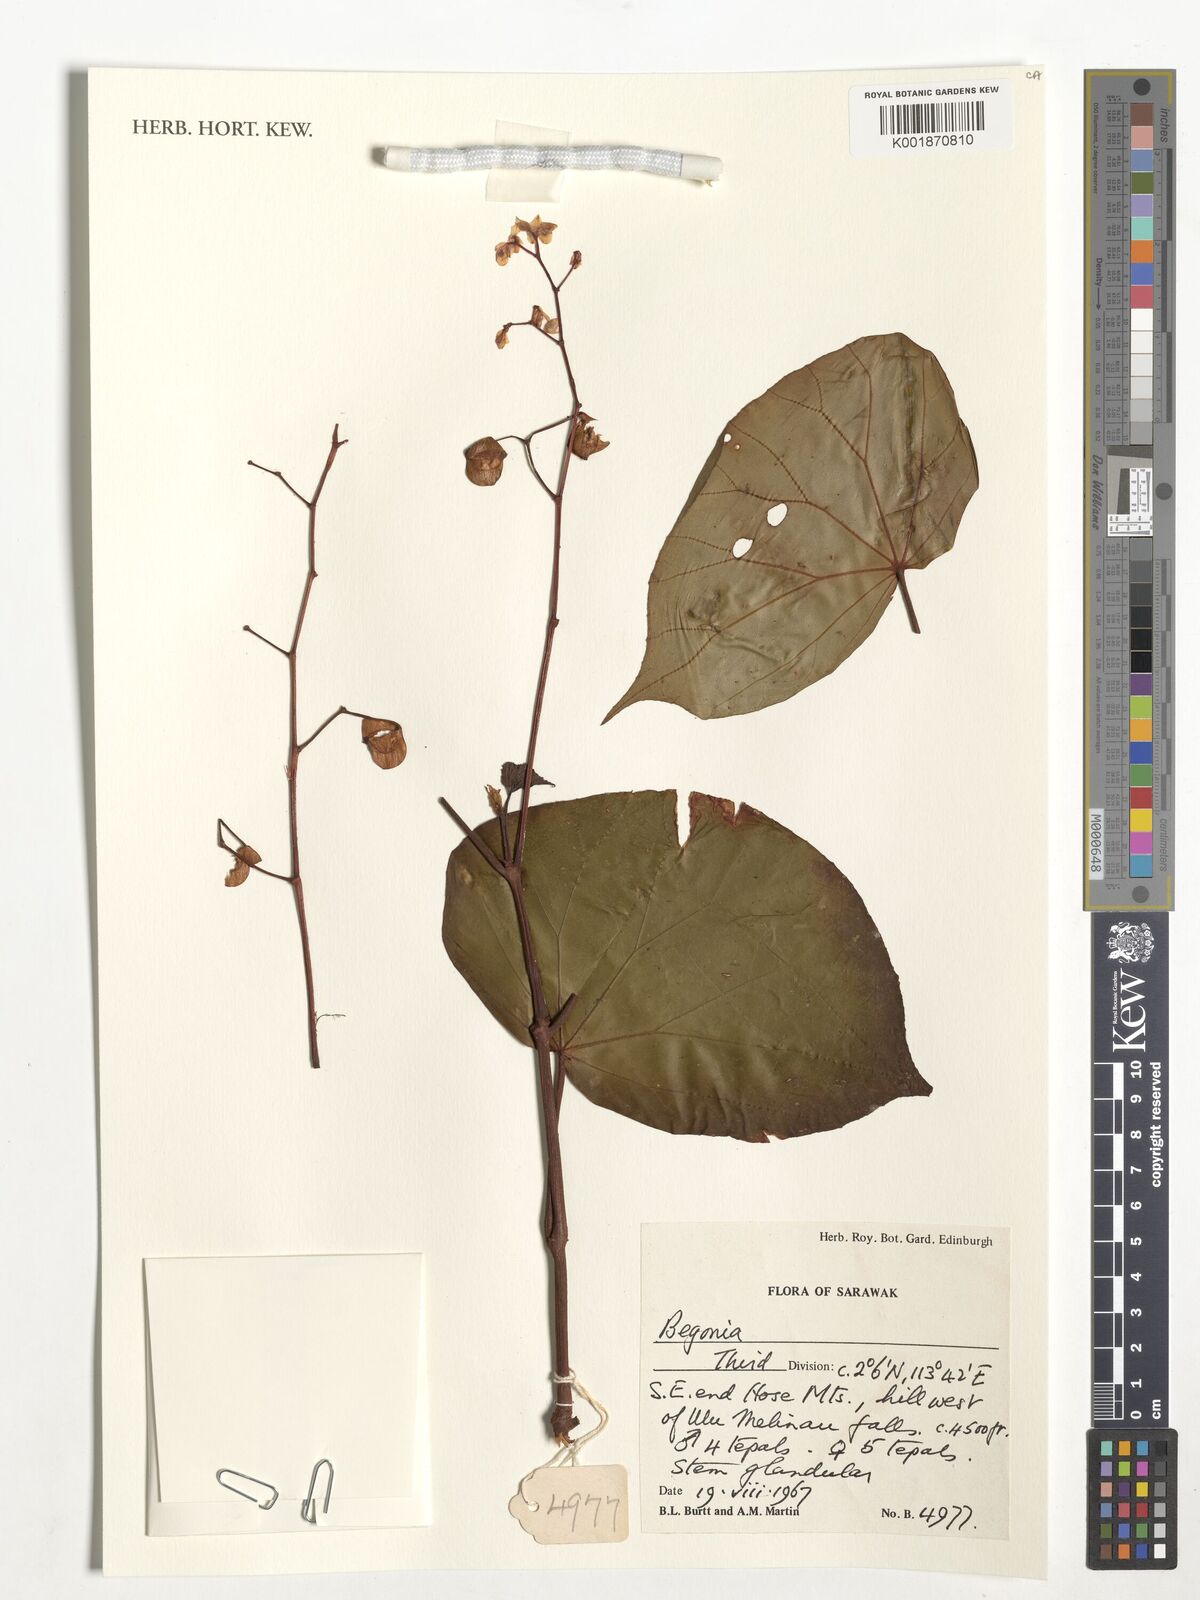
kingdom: Plantae
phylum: Tracheophyta
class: Magnoliopsida
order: Cucurbitales
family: Begoniaceae
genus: Begonia
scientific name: Begonia
